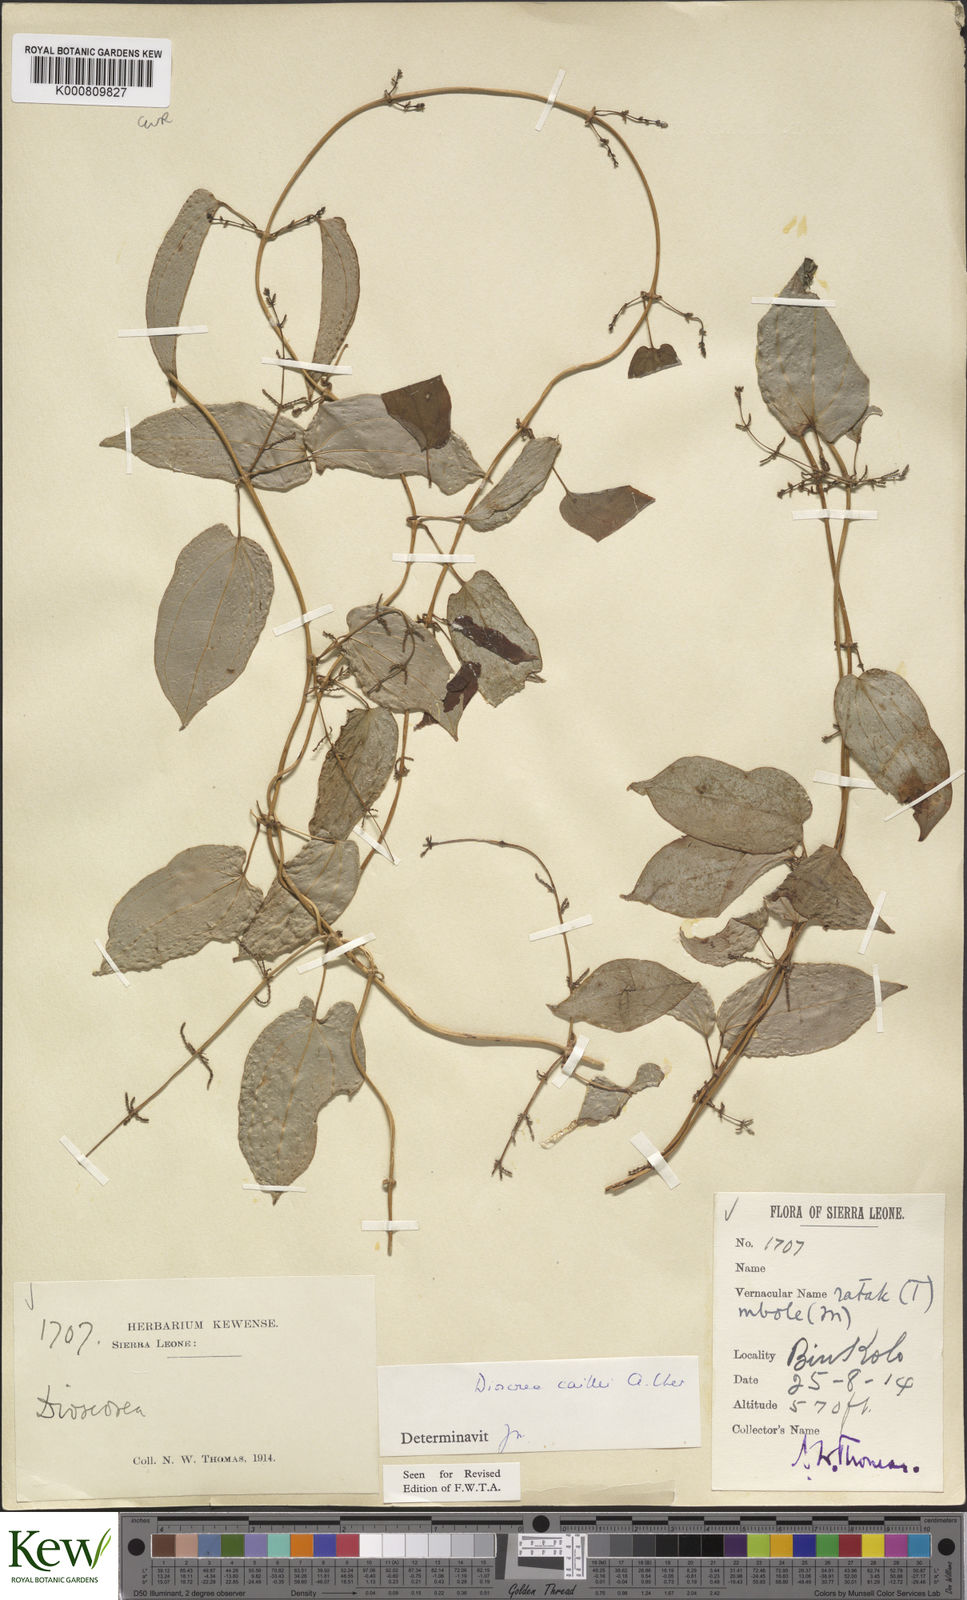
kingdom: Plantae
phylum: Tracheophyta
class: Liliopsida
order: Dioscoreales
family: Dioscoreaceae
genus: Dioscorea
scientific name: Dioscorea togoensis
